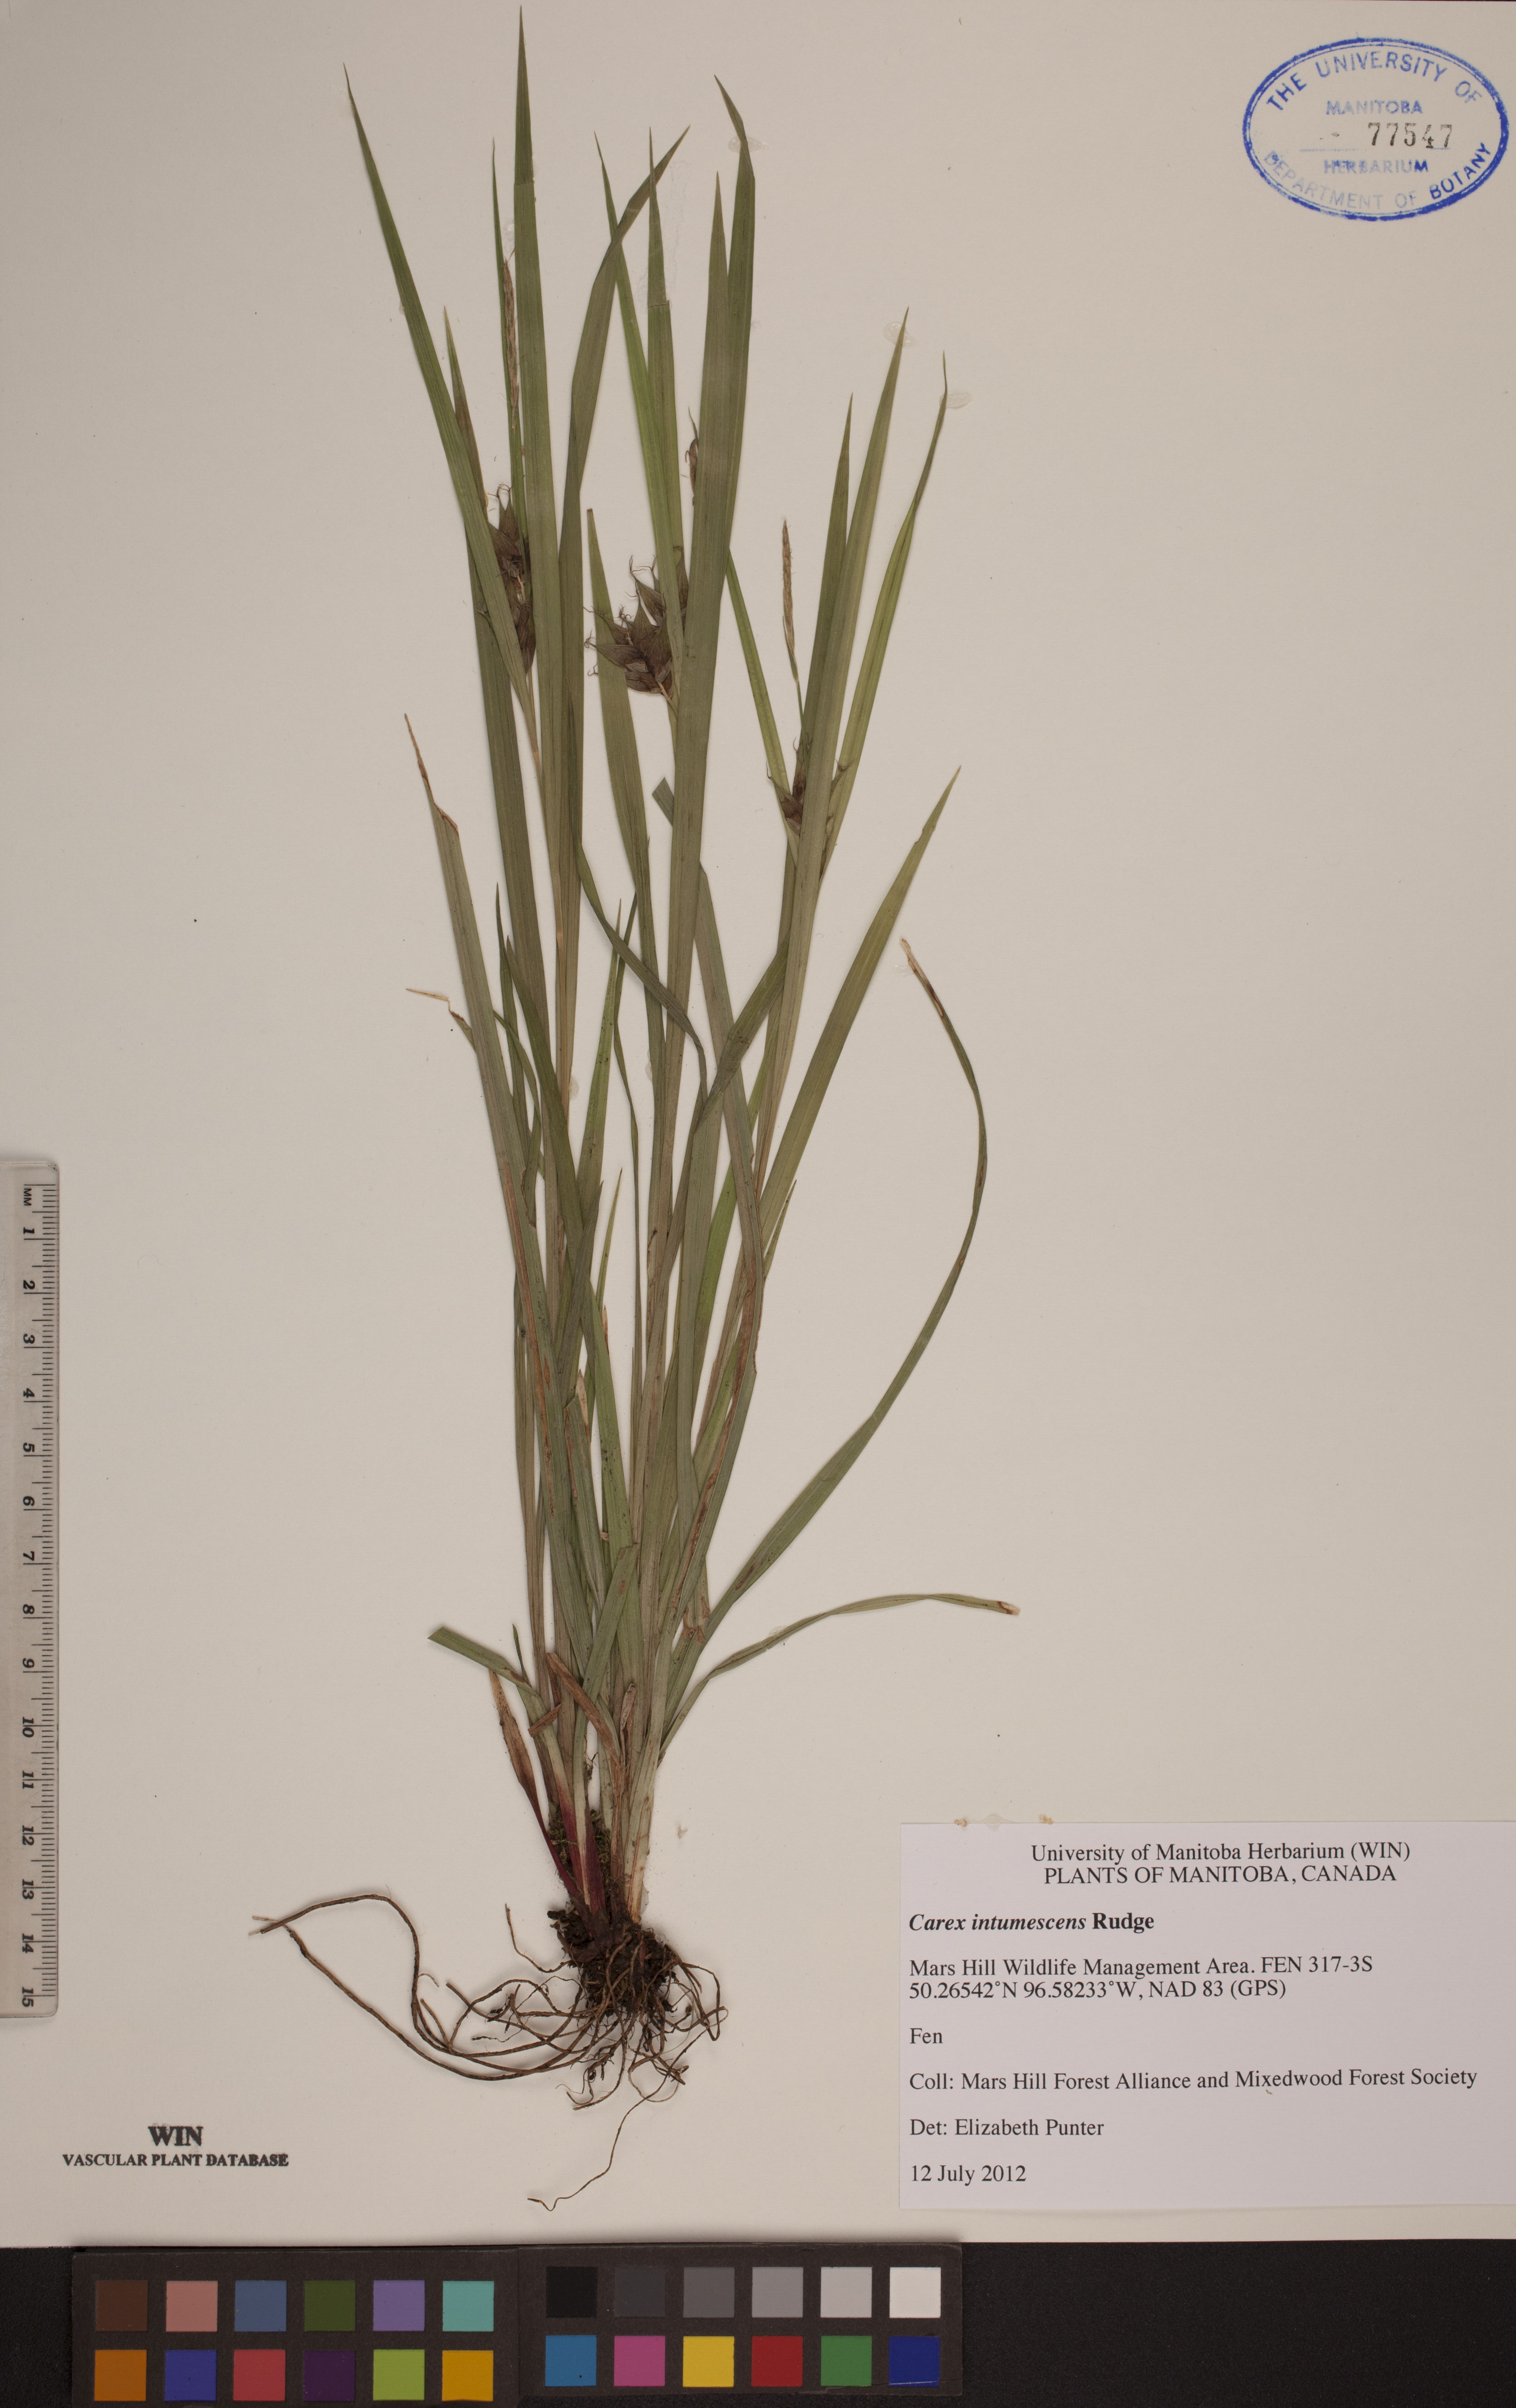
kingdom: Plantae
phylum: Tracheophyta
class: Liliopsida
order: Poales
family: Cyperaceae
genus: Carex
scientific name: Carex intumescens
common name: Greater bladder sedge
